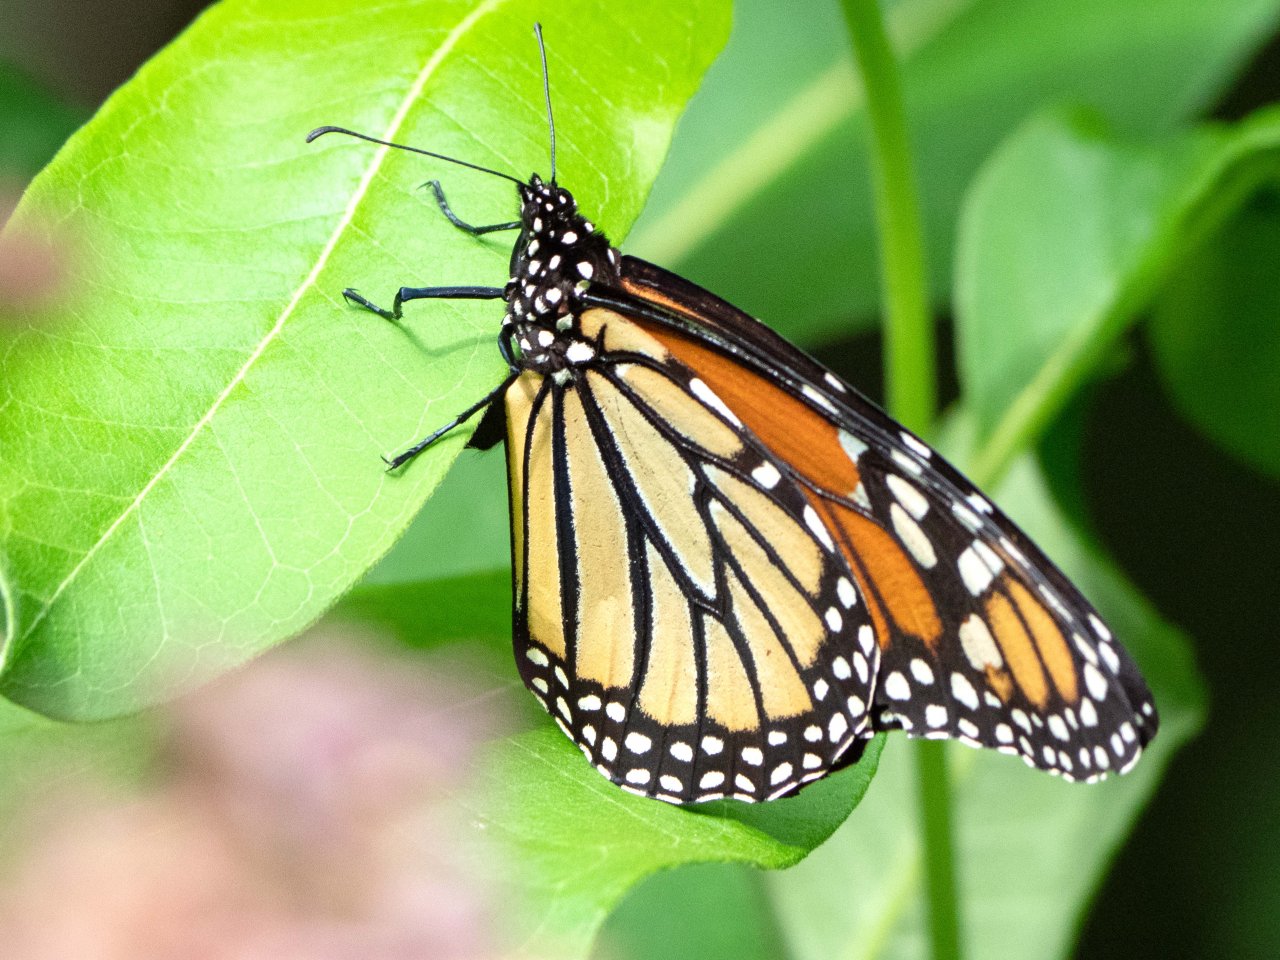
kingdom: Animalia
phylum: Arthropoda
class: Insecta
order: Lepidoptera
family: Nymphalidae
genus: Danaus
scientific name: Danaus plexippus
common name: Monarch
